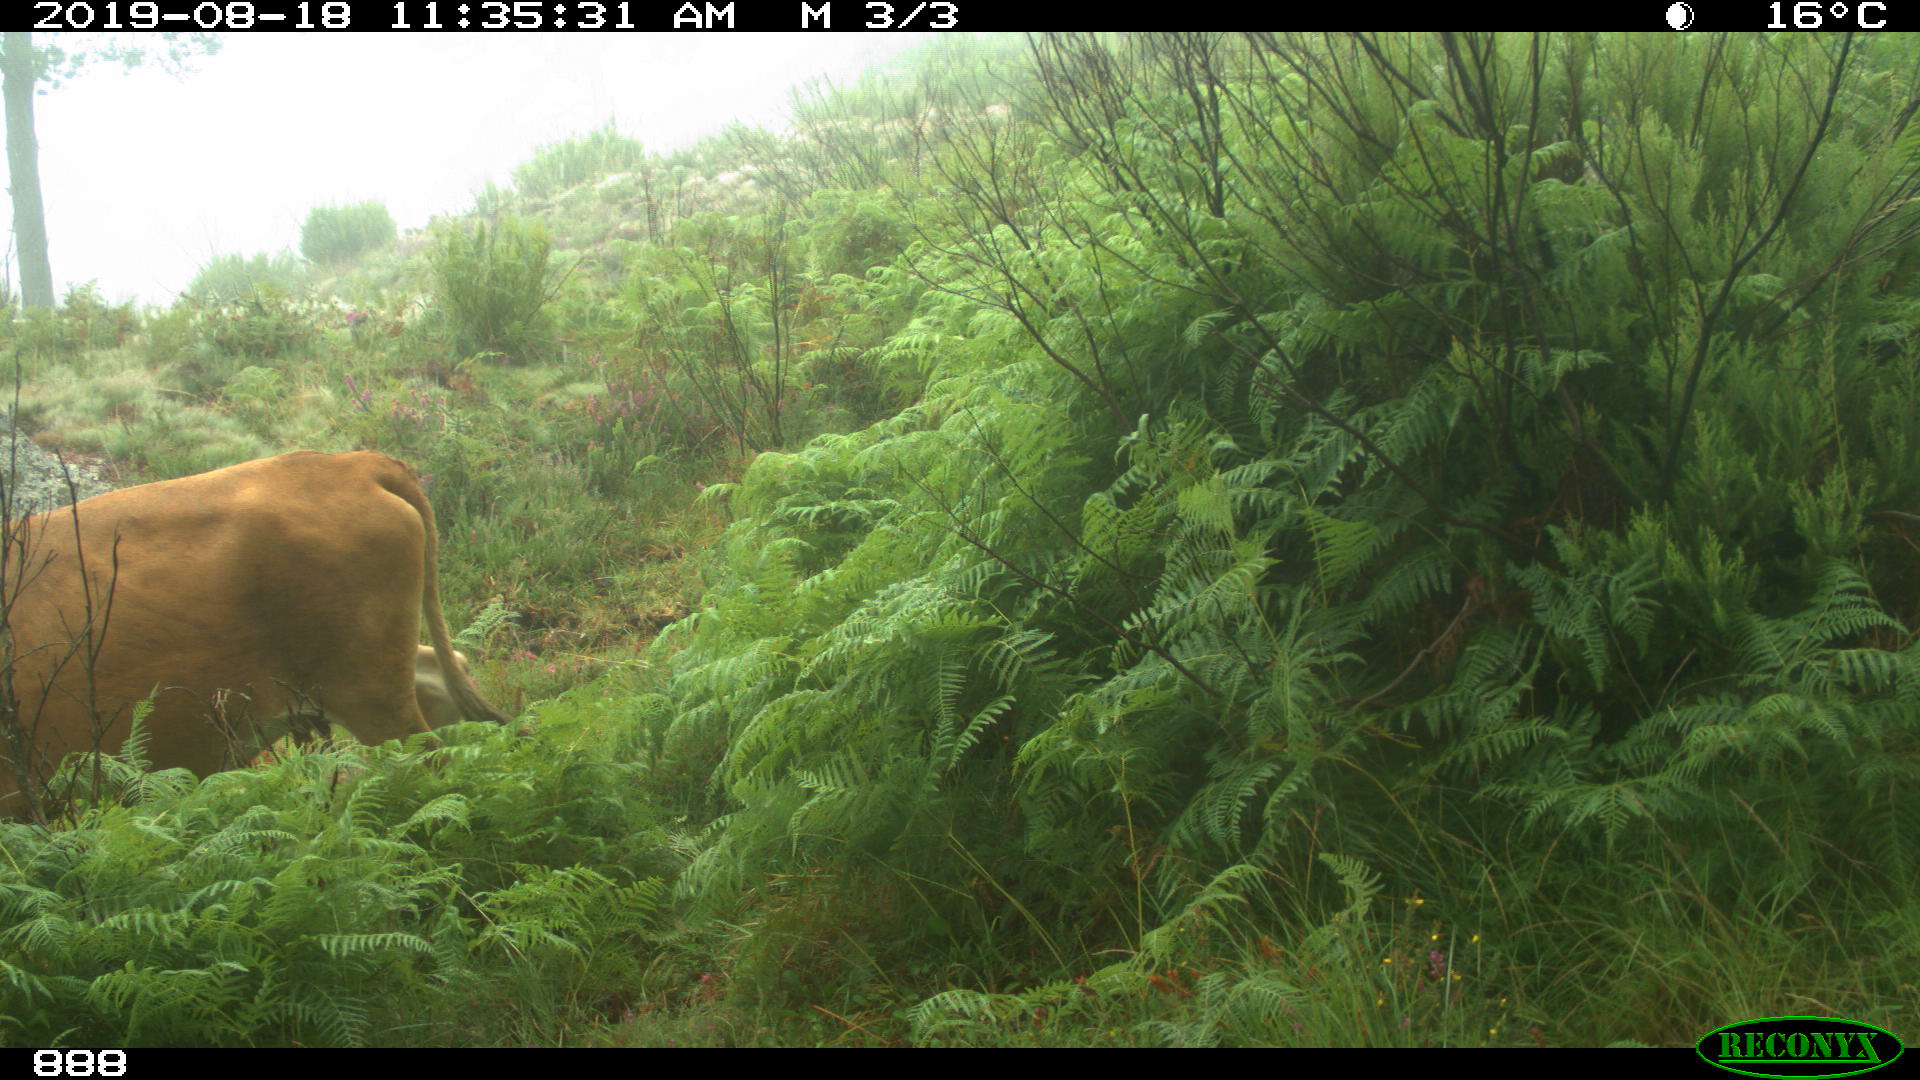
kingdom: Animalia
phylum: Chordata
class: Mammalia
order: Artiodactyla
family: Bovidae
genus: Bos
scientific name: Bos taurus
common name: Domesticated cattle
